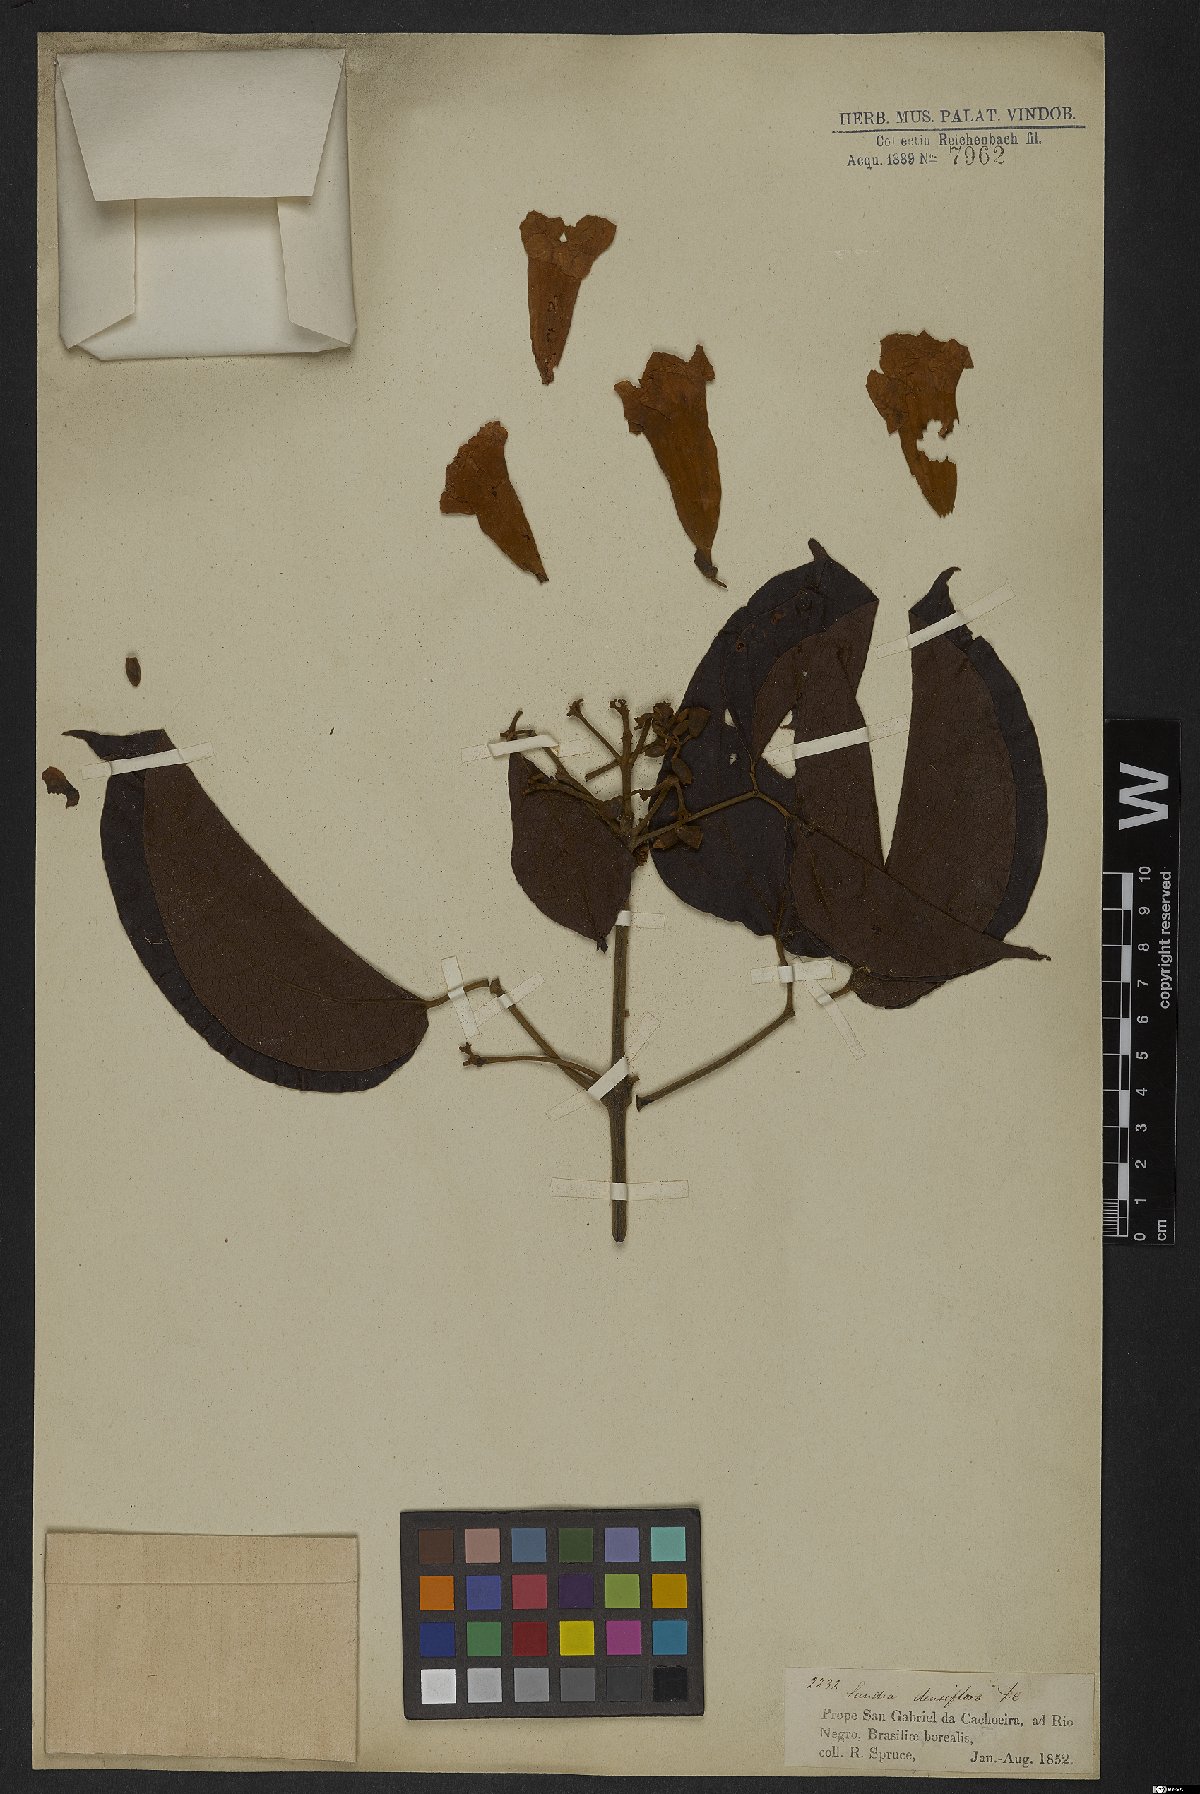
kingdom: Plantae
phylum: Tracheophyta
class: Magnoliopsida
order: Lamiales
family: Bignoniaceae
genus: Lundia
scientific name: Lundia densiflora
